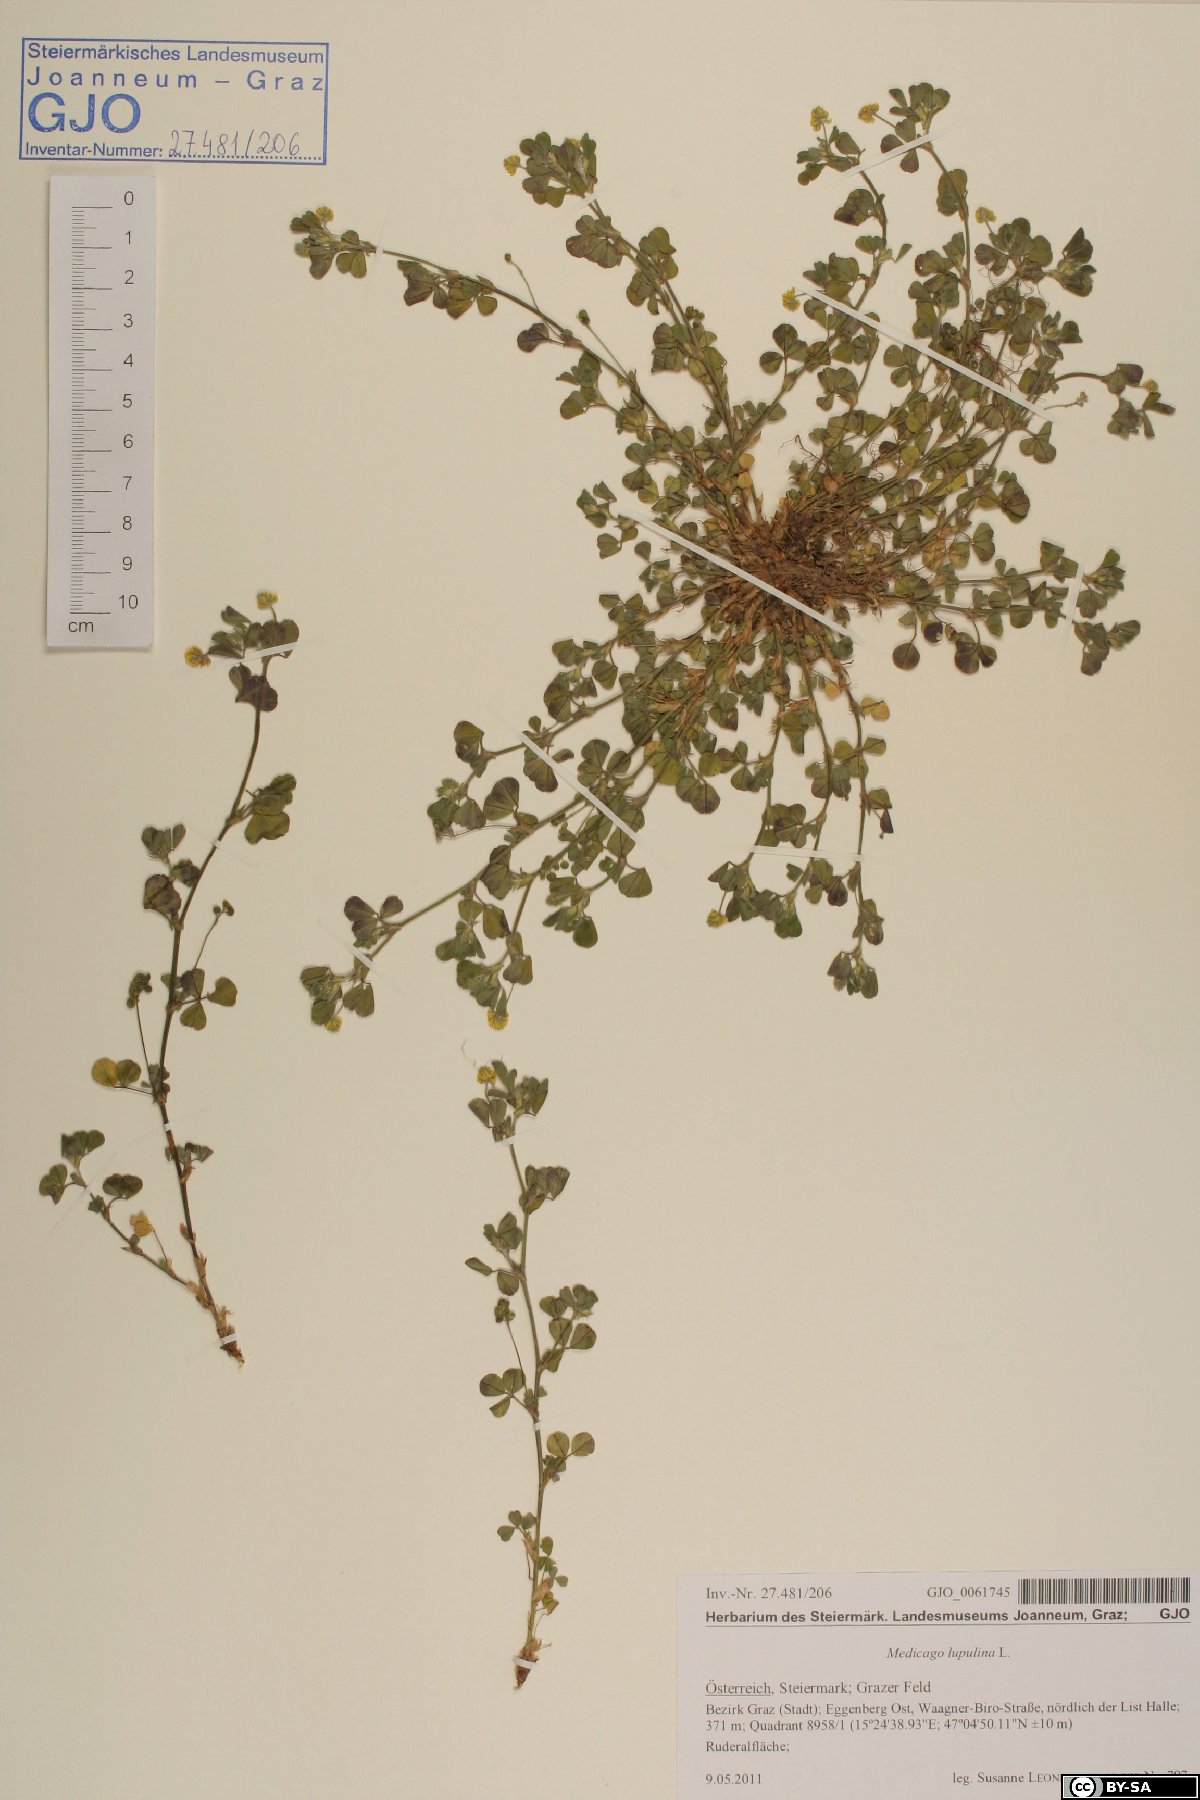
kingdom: Plantae
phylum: Tracheophyta
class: Magnoliopsida
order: Fabales
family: Fabaceae
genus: Medicago
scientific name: Medicago lupulina
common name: Black medick
